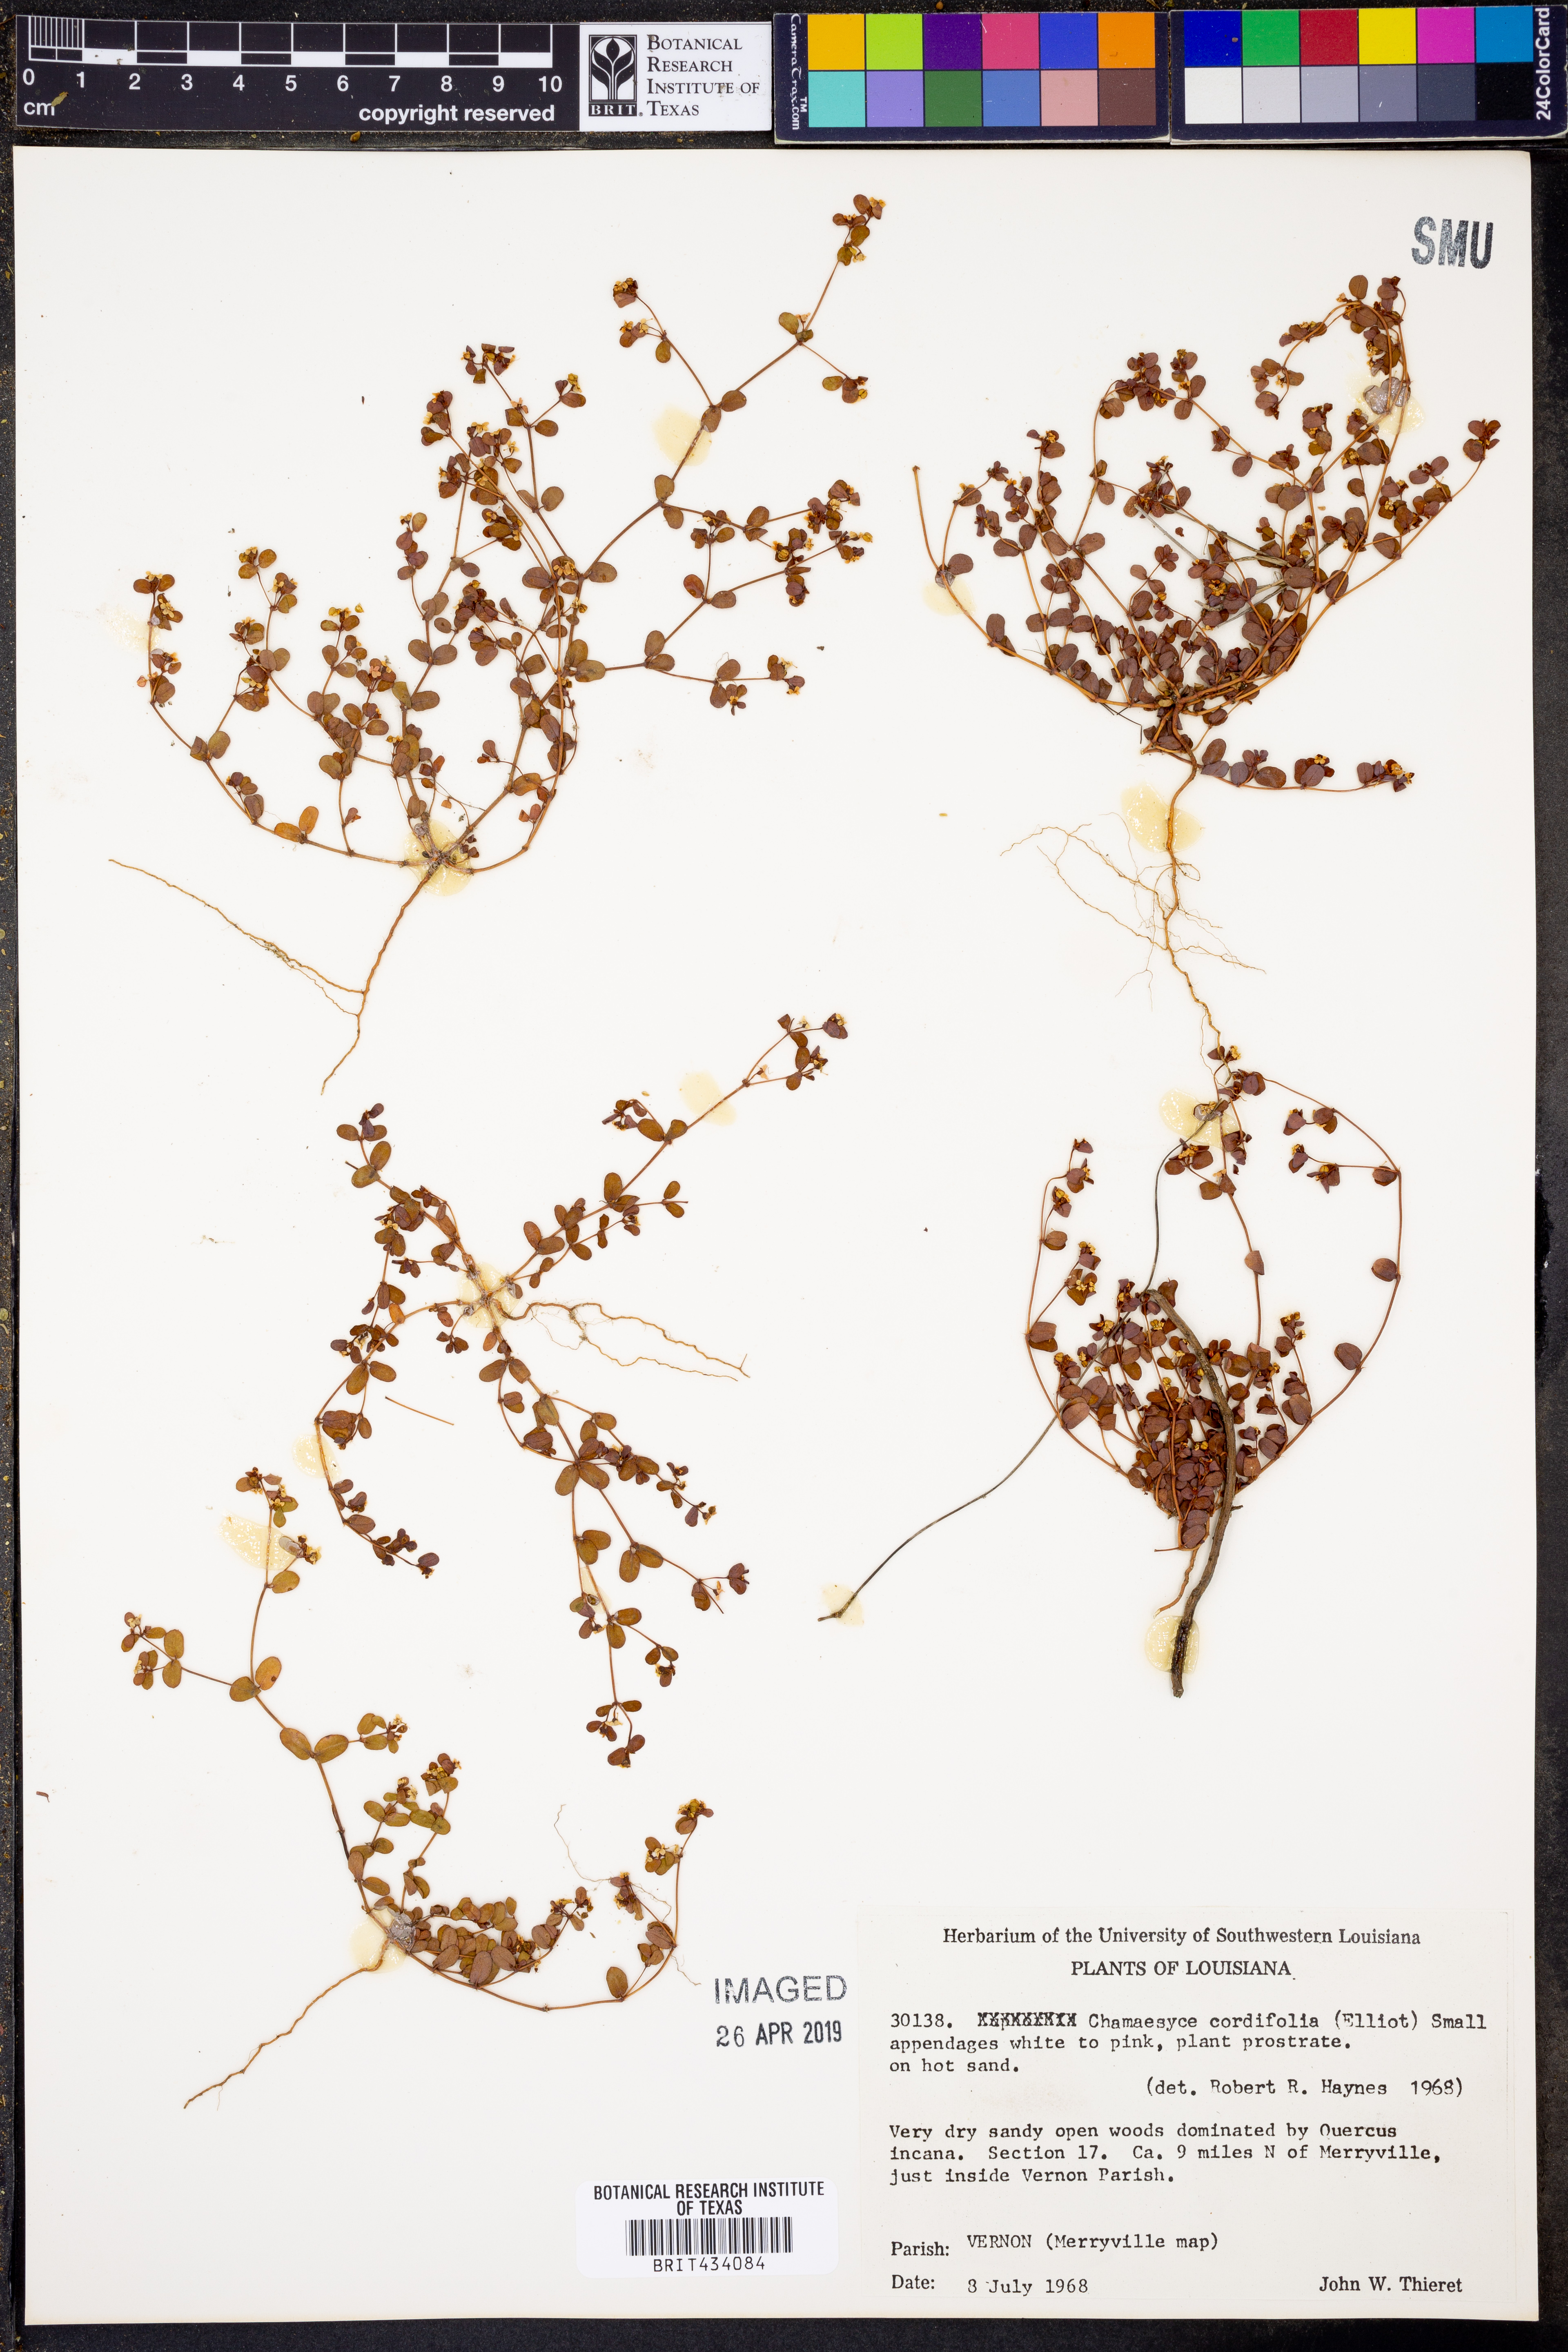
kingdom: Plantae
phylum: Tracheophyta
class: Magnoliopsida
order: Malpighiales
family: Euphorbiaceae
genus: Euphorbia
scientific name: Euphorbia cordifolia
